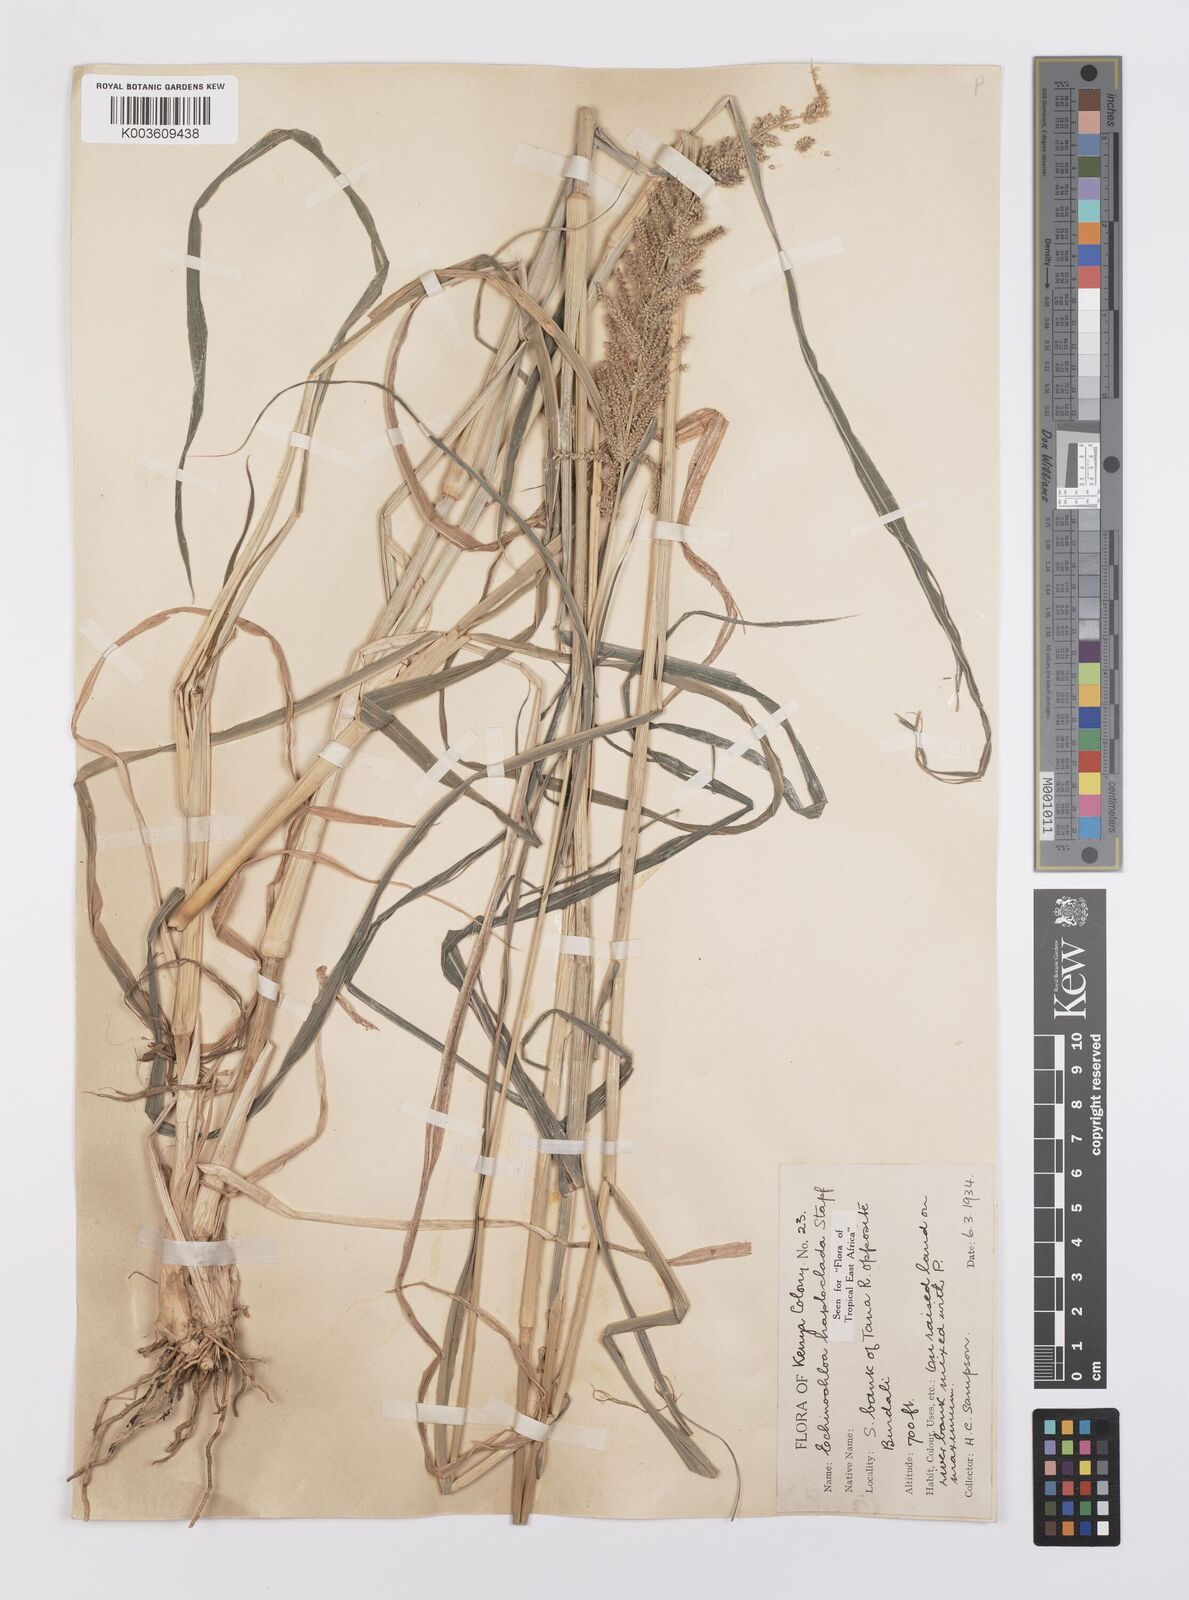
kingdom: Plantae
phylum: Tracheophyta
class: Liliopsida
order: Poales
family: Poaceae
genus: Echinochloa
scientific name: Echinochloa haploclada
